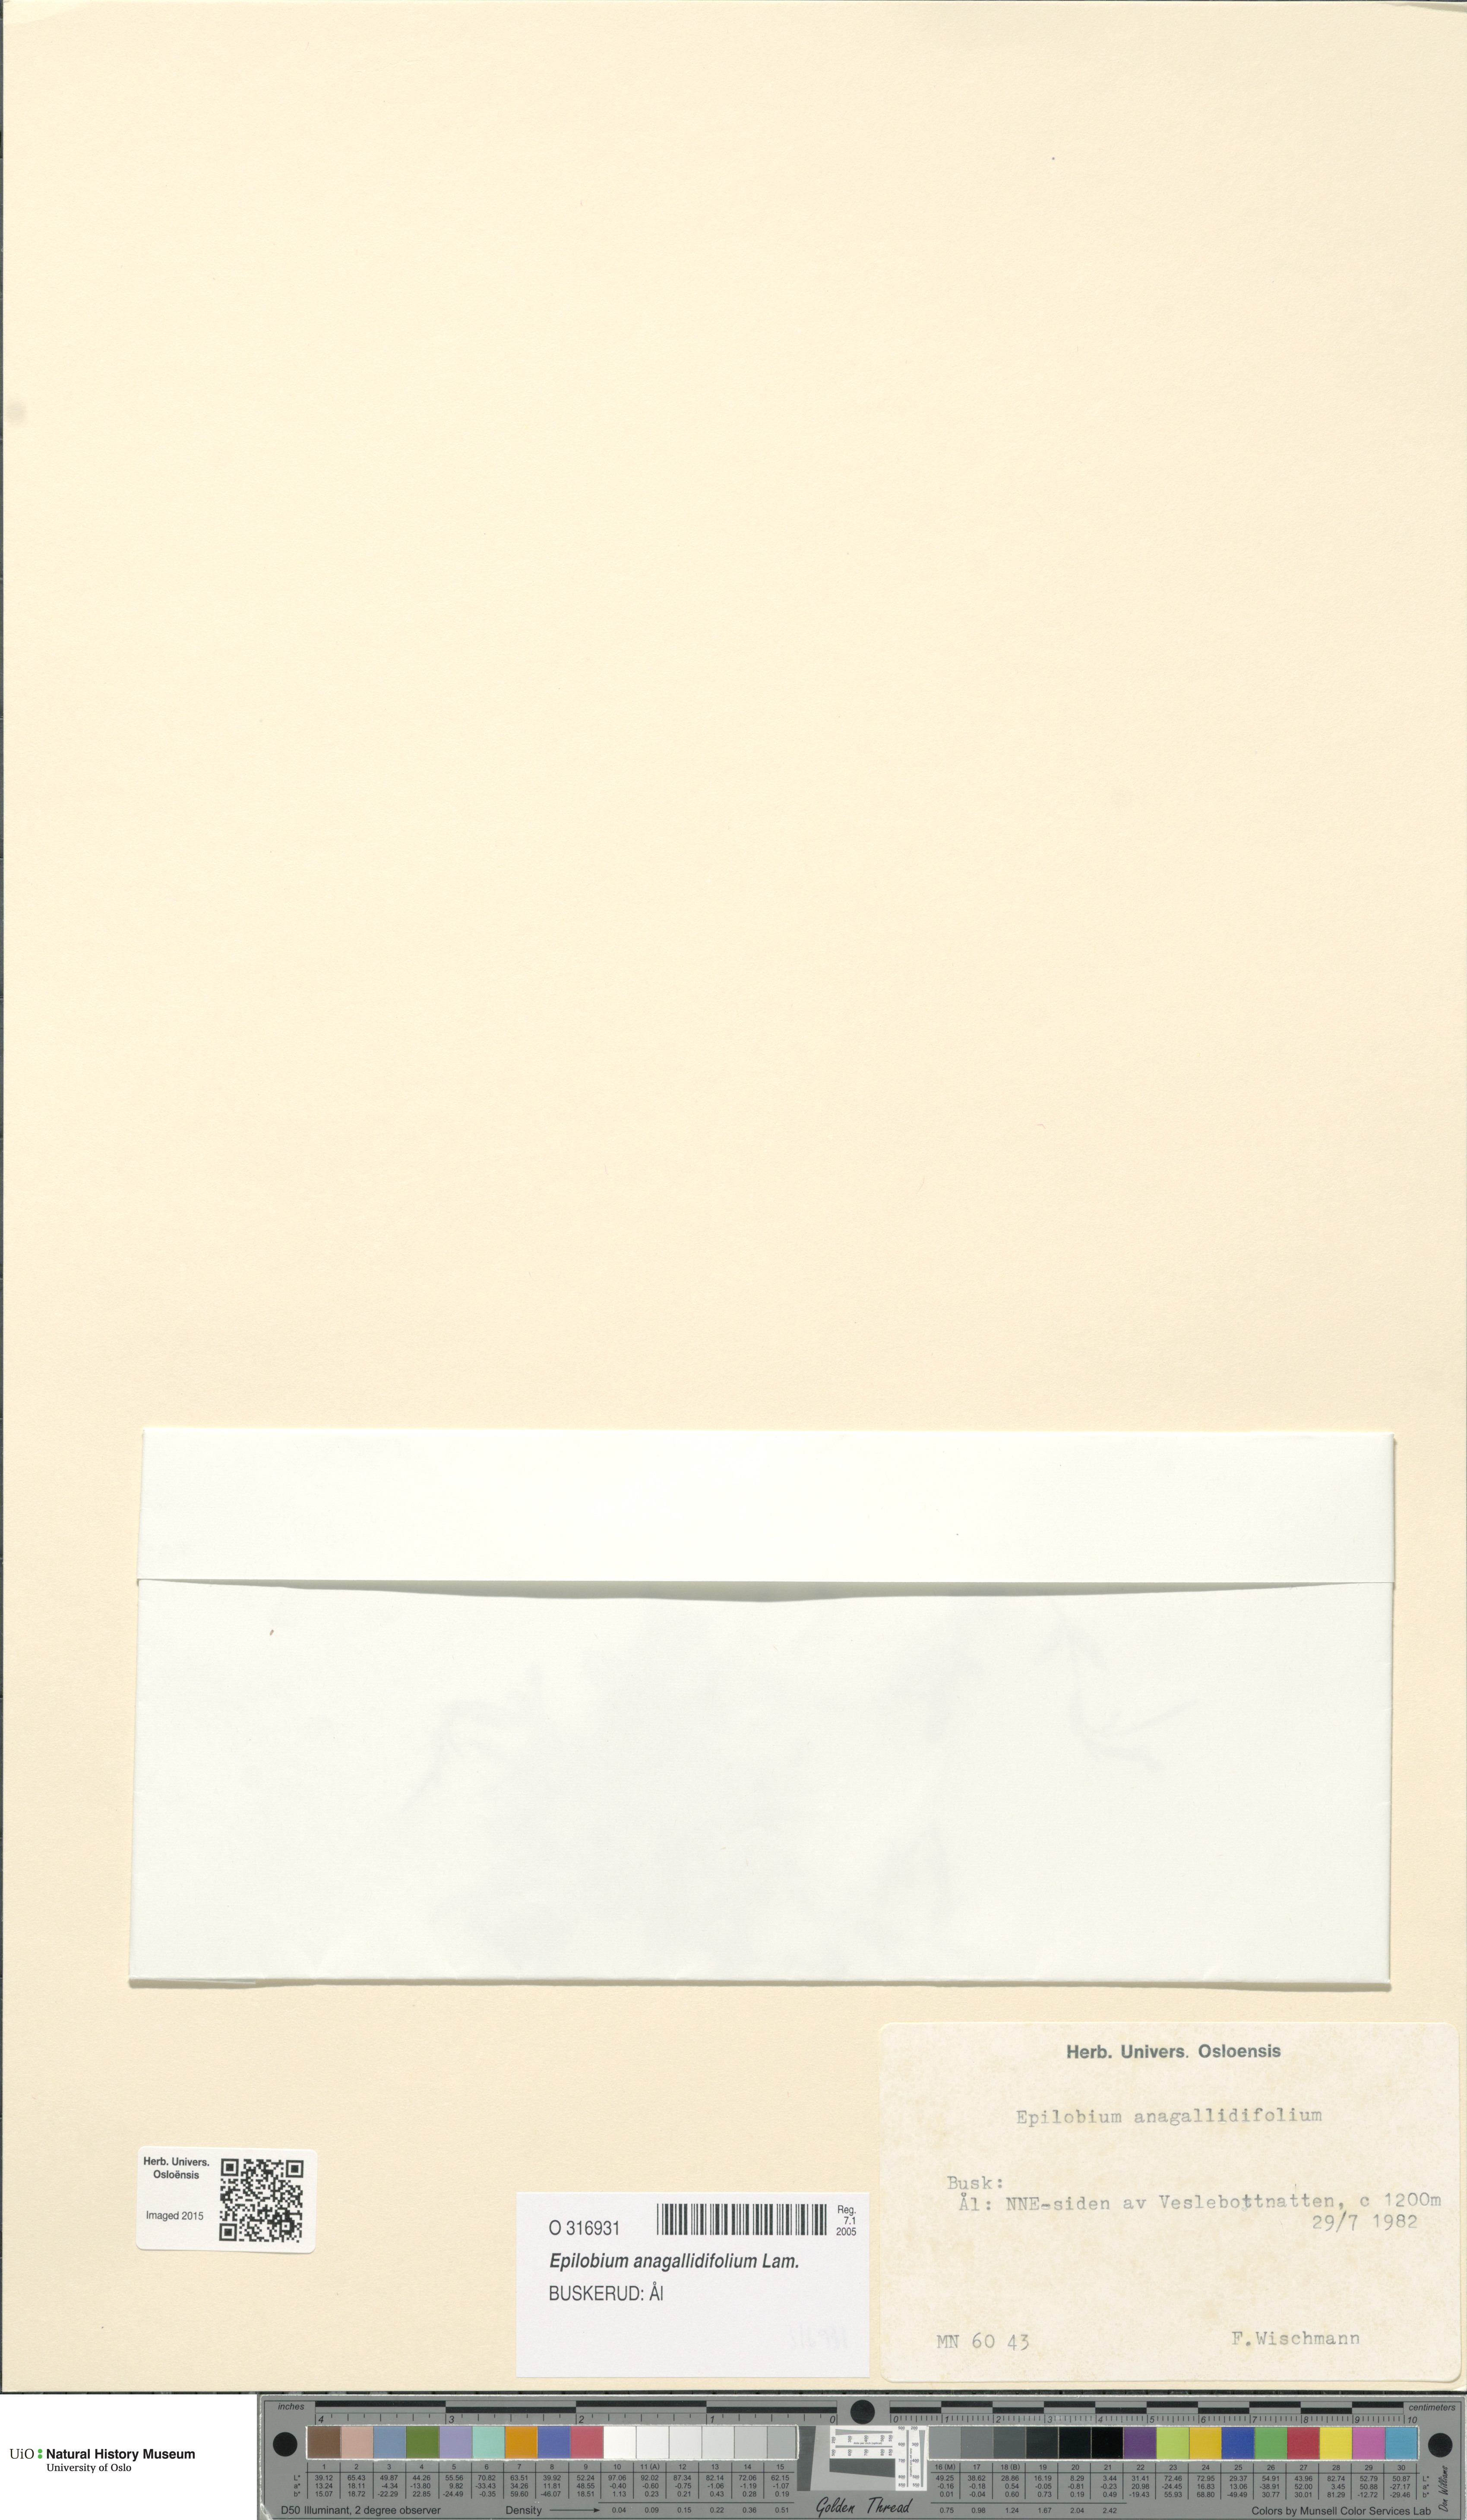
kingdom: Plantae
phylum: Tracheophyta
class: Magnoliopsida
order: Myrtales
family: Onagraceae
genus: Epilobium
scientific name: Epilobium anagallidifolium
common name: Alpine willowherb
